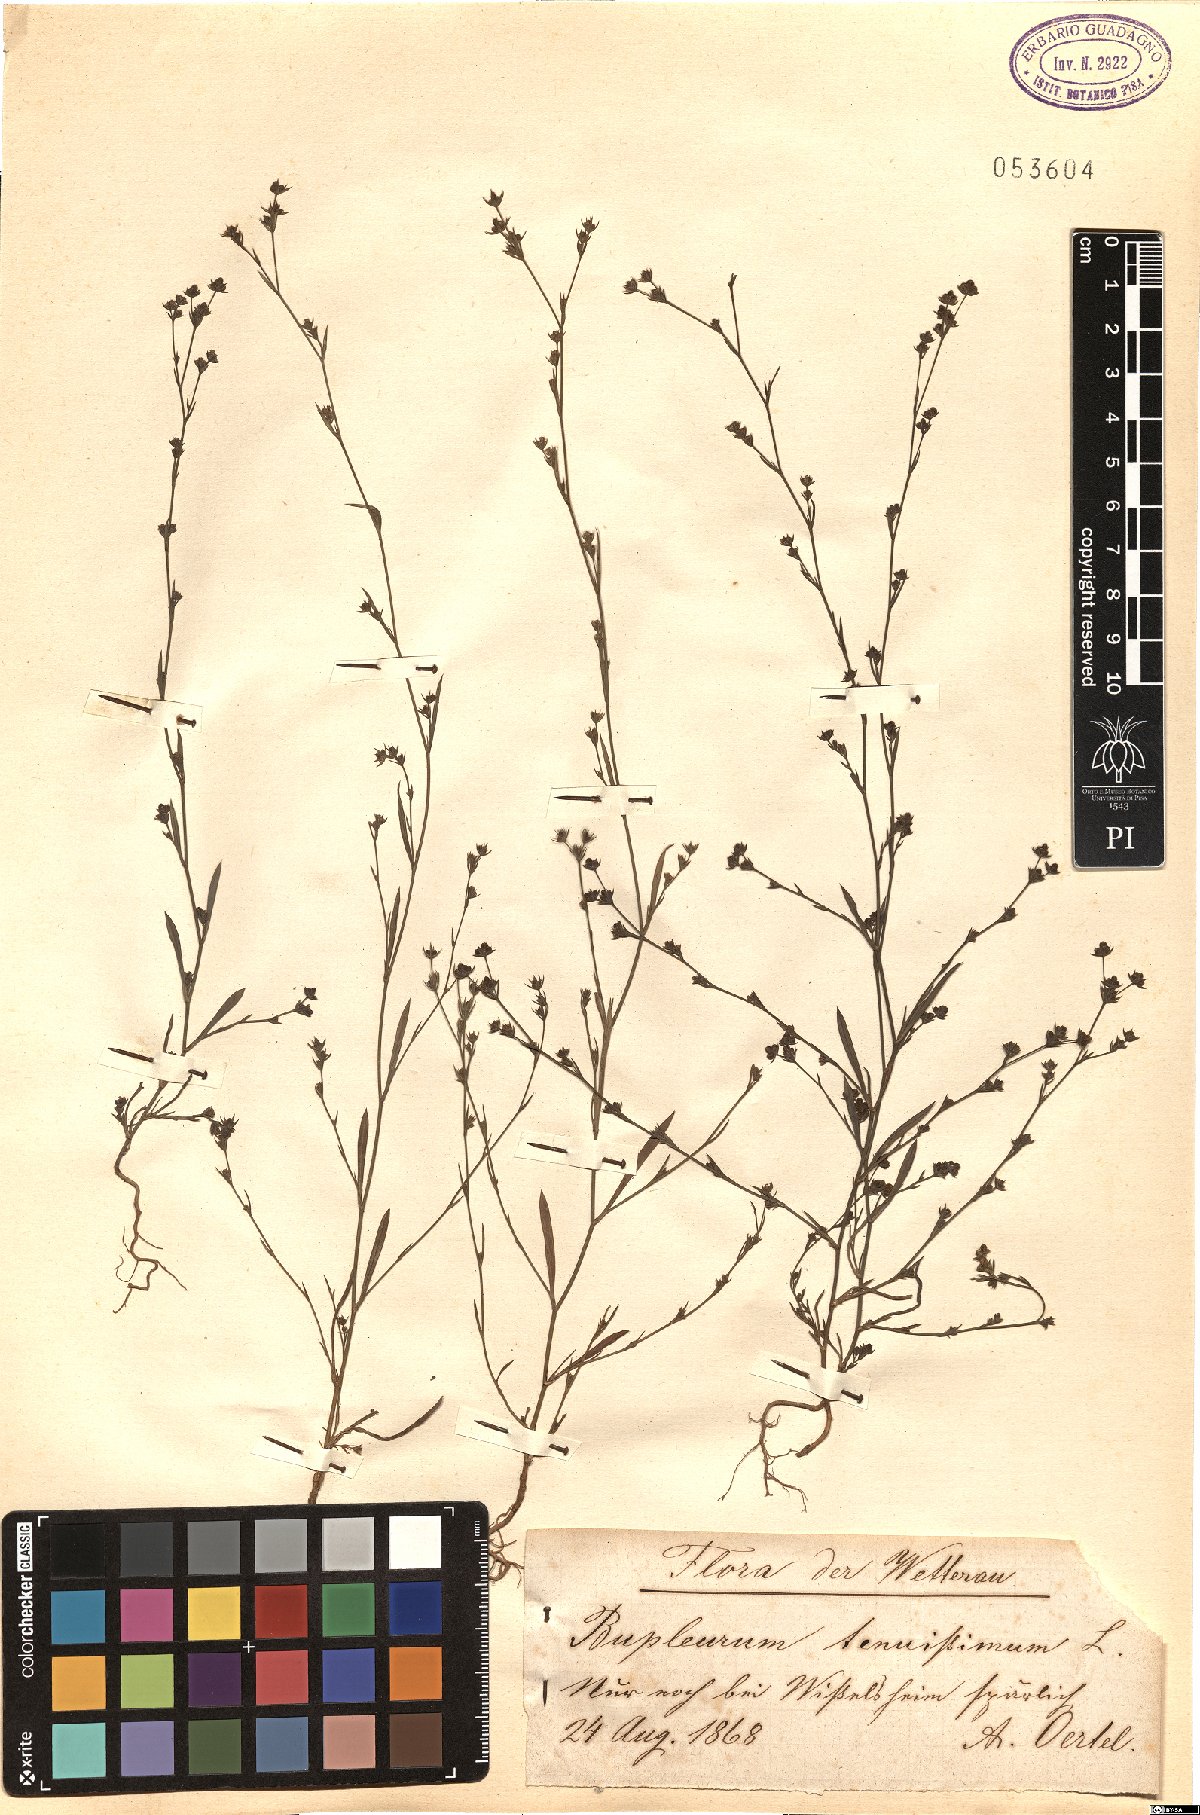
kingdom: Plantae
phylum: Tracheophyta
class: Magnoliopsida
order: Apiales
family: Apiaceae
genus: Bupleurum
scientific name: Bupleurum tenuissimum
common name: Slender hare's-ear
